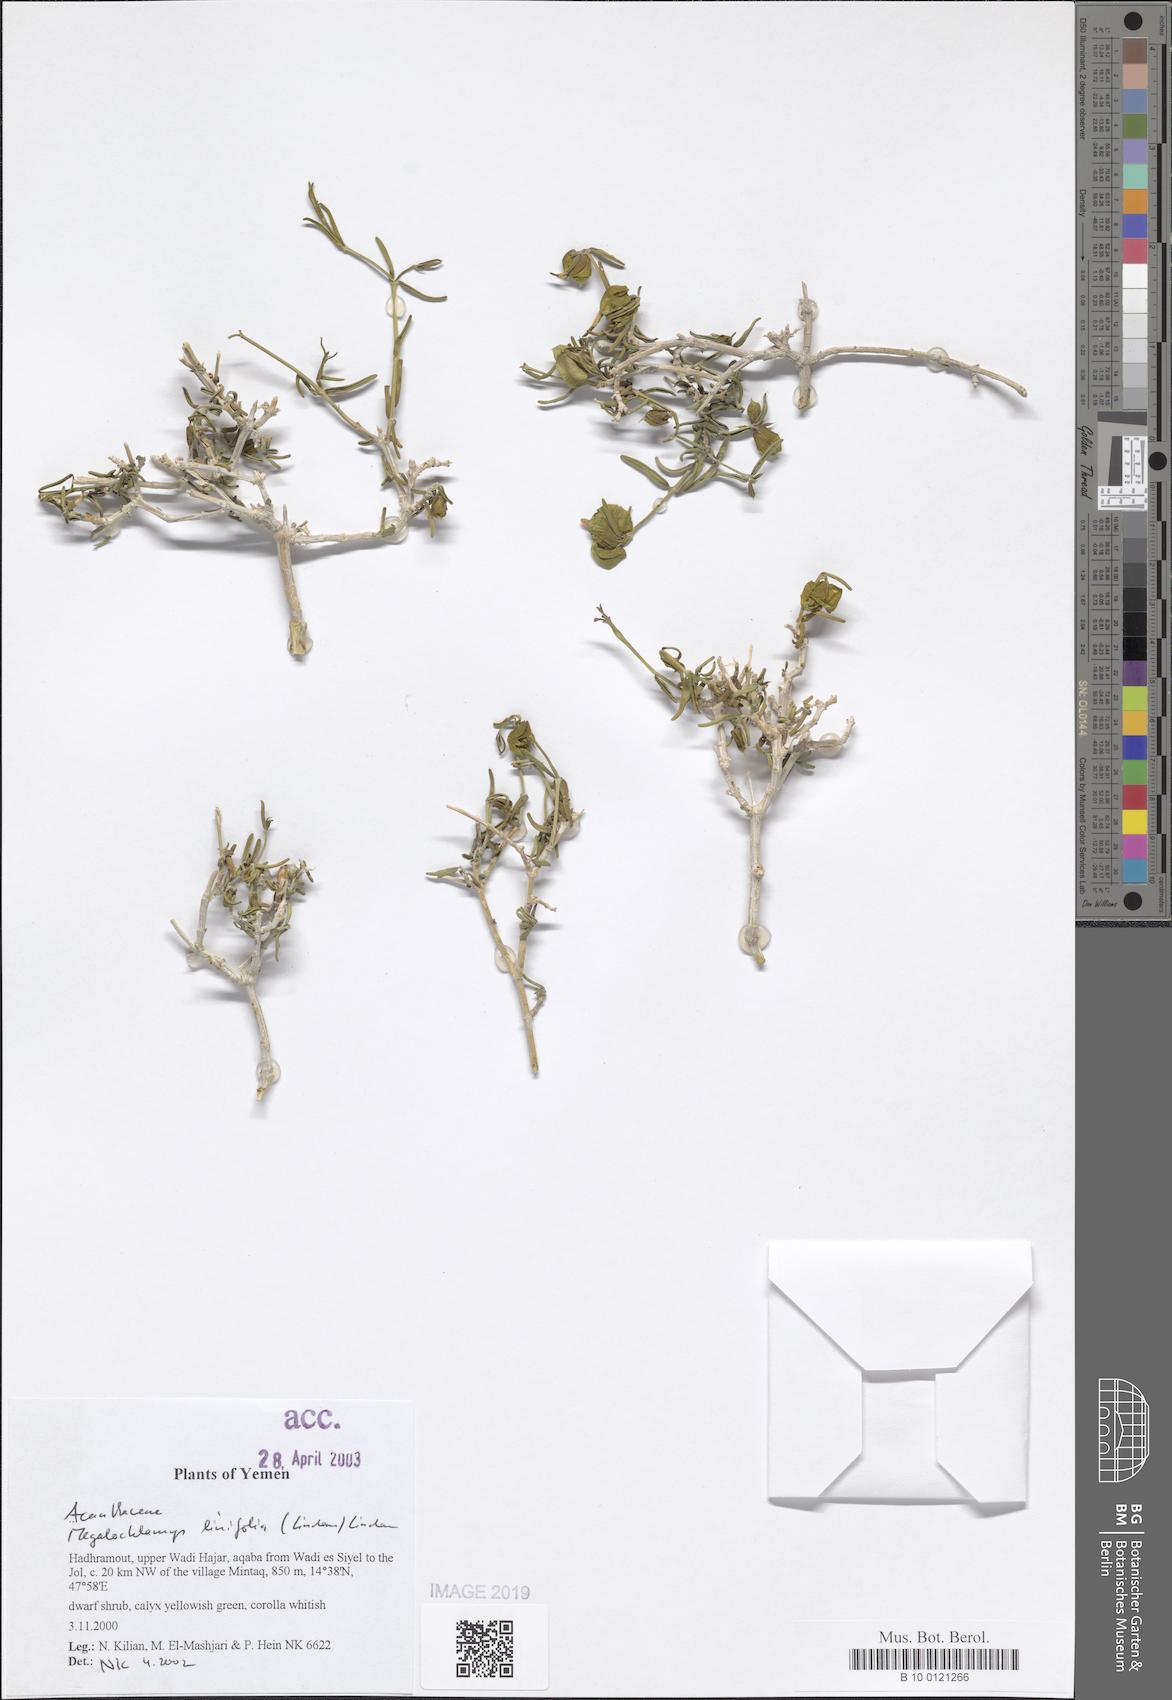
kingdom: Plantae
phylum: Tracheophyta
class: Magnoliopsida
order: Lamiales
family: Acanthaceae
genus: Megalochlamys
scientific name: Megalochlamys linifolia
